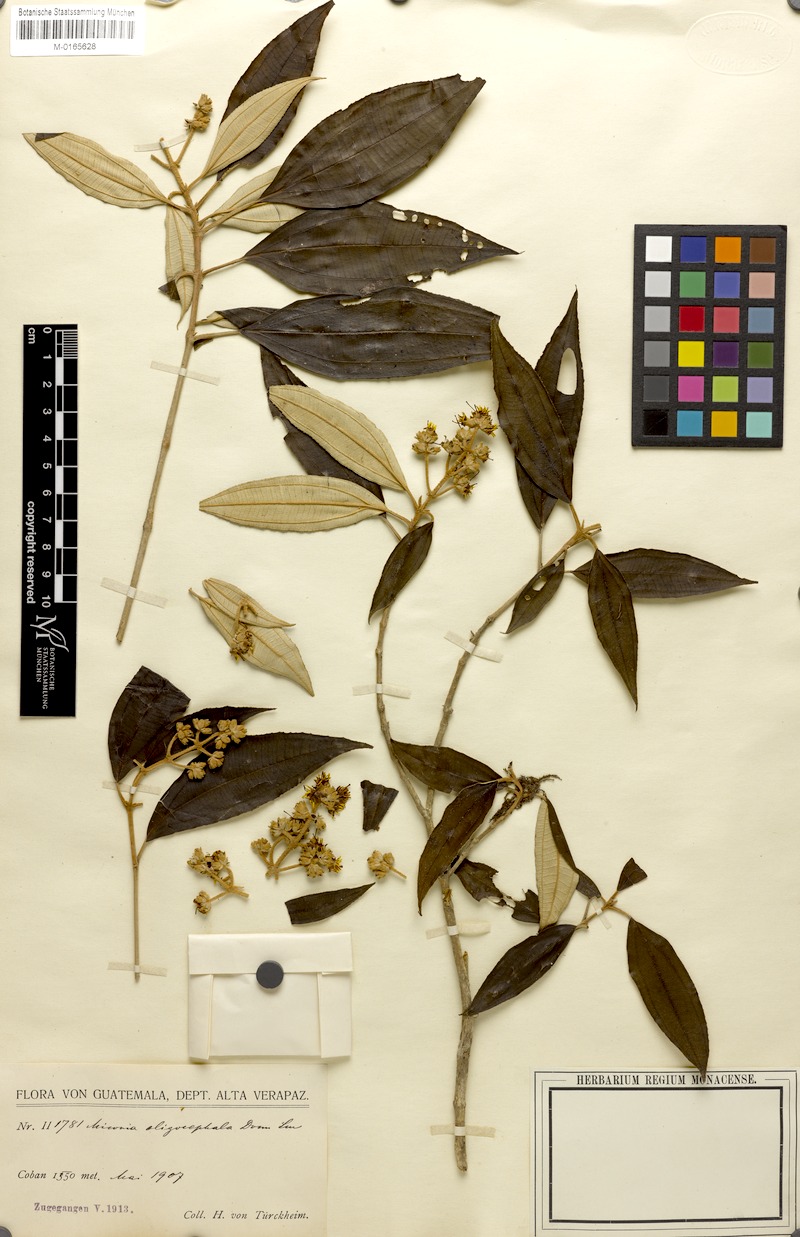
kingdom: Plantae
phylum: Tracheophyta
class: Magnoliopsida
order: Myrtales
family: Melastomataceae
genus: Miconia
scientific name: Miconia oligocephala
